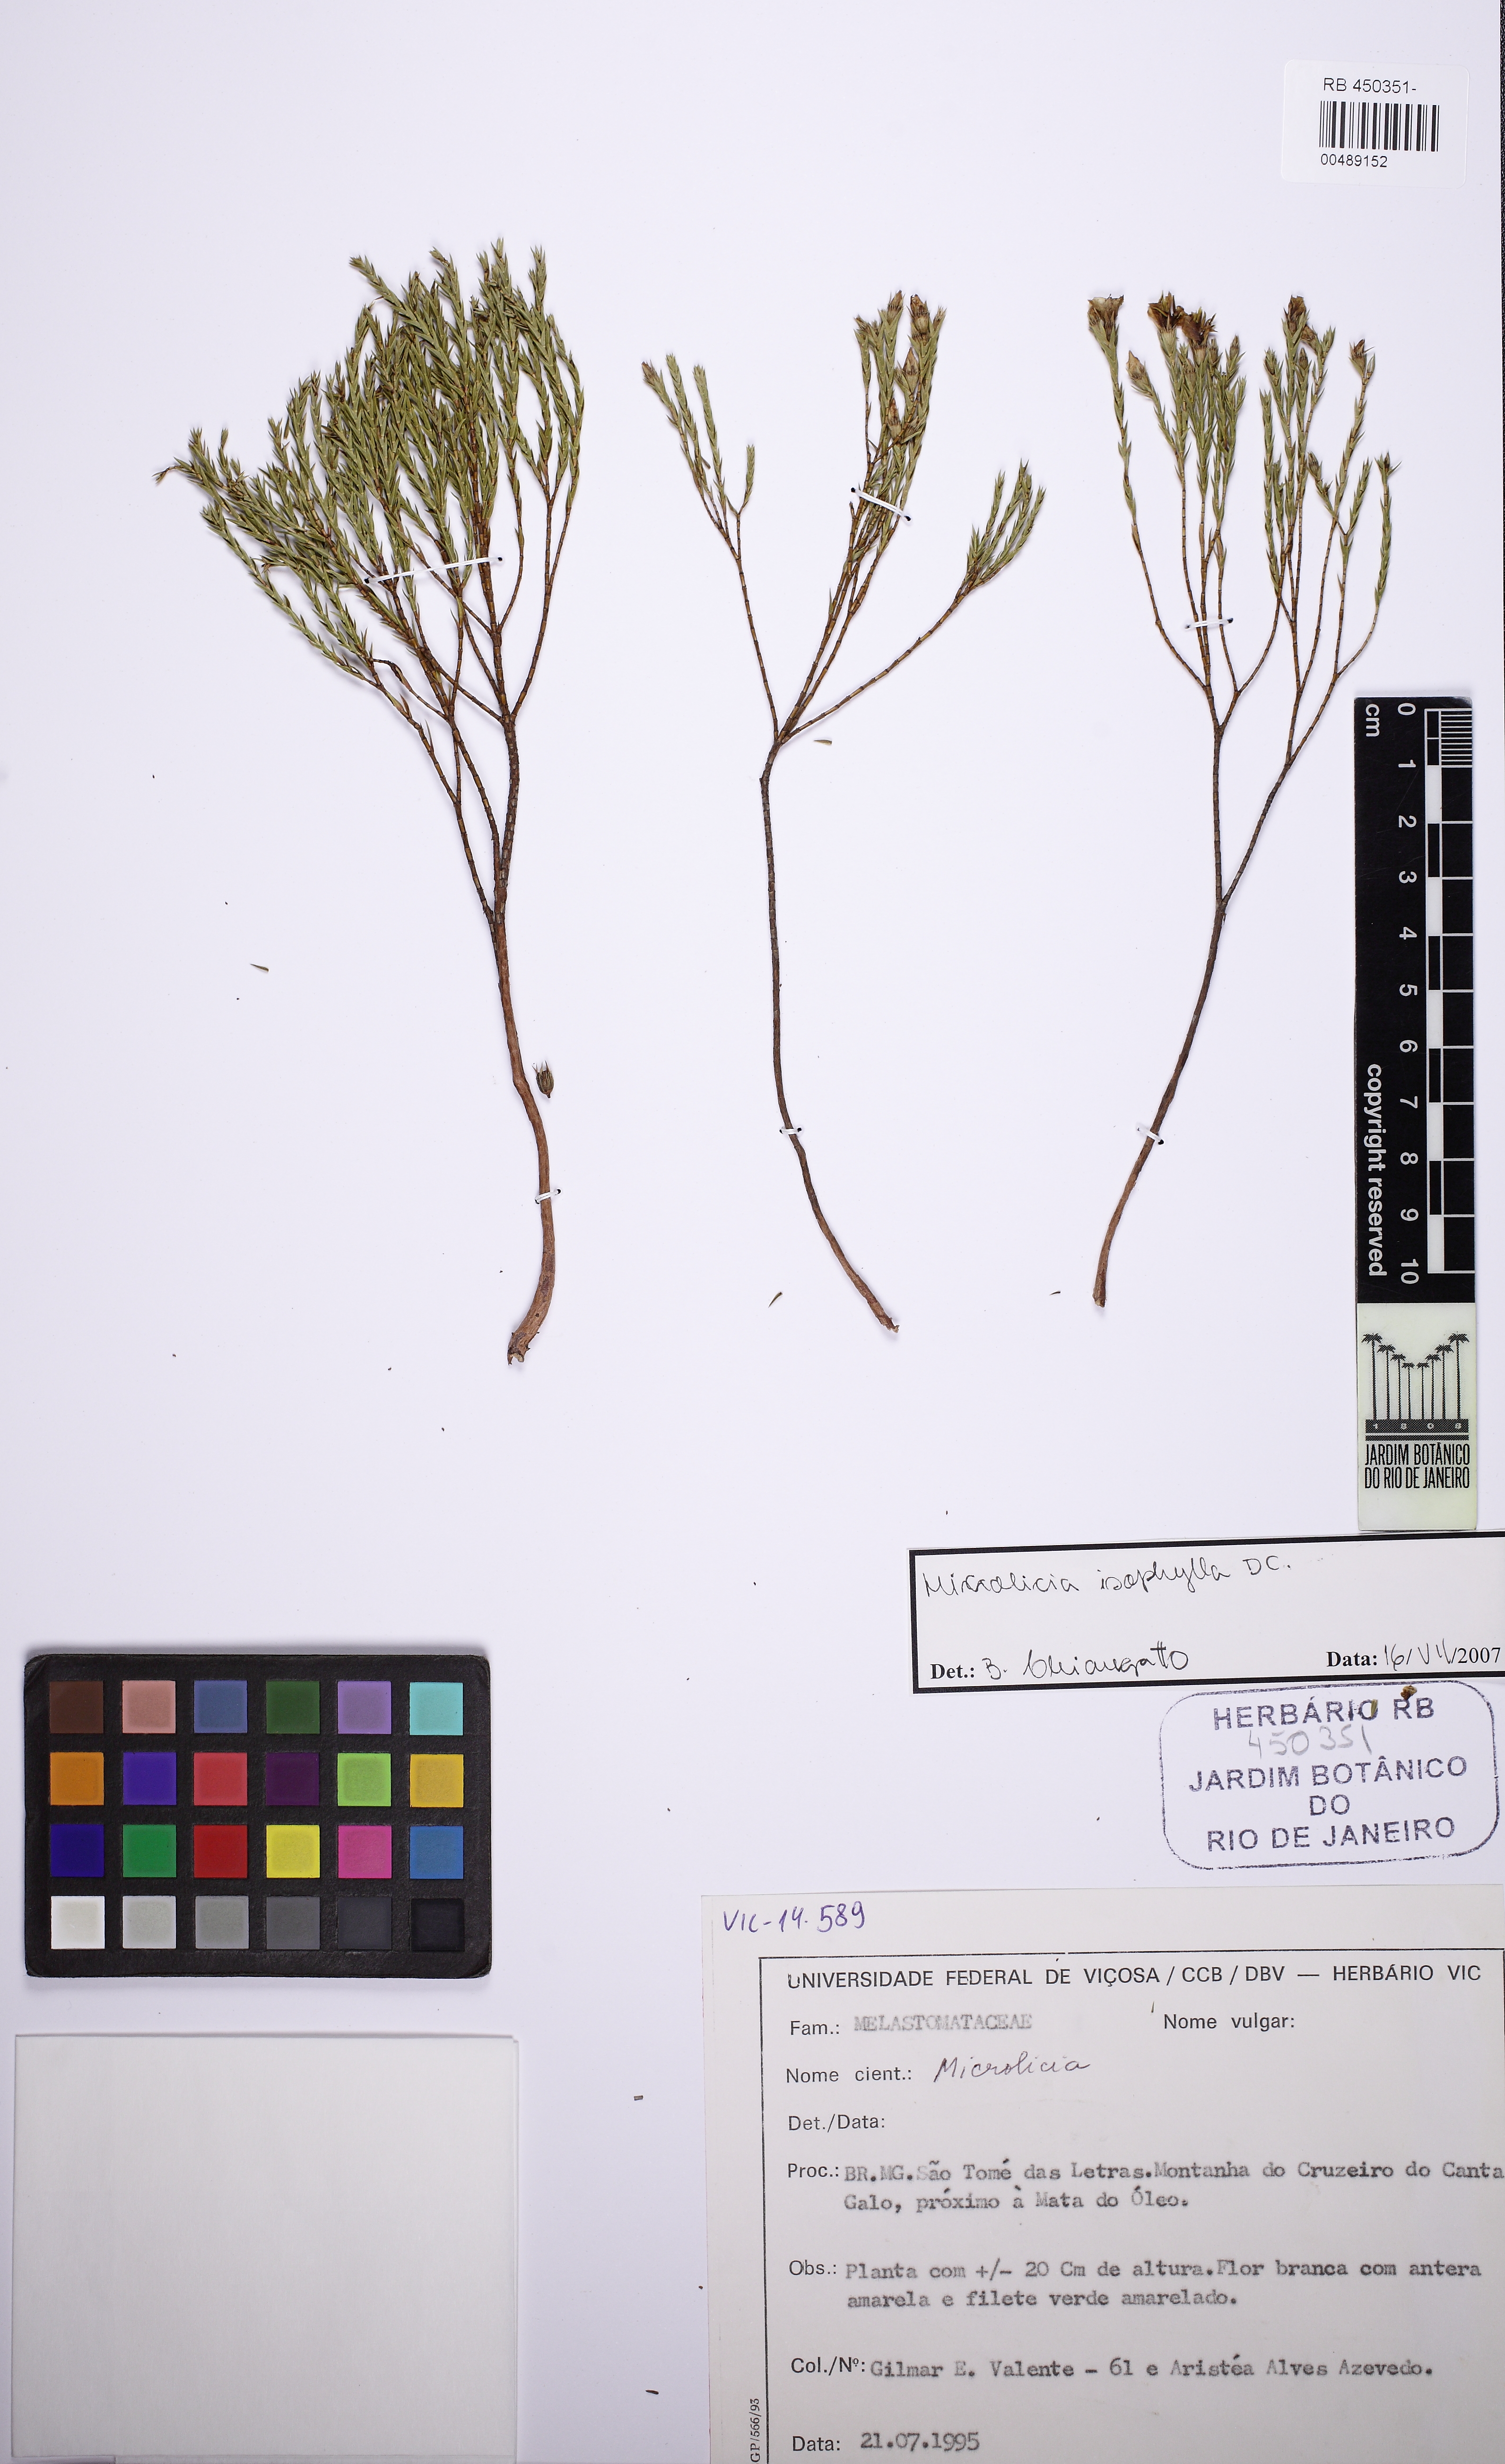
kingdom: Plantae
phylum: Tracheophyta
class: Magnoliopsida
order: Myrtales
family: Melastomataceae
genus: Microlicia
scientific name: Microlicia albiflora
